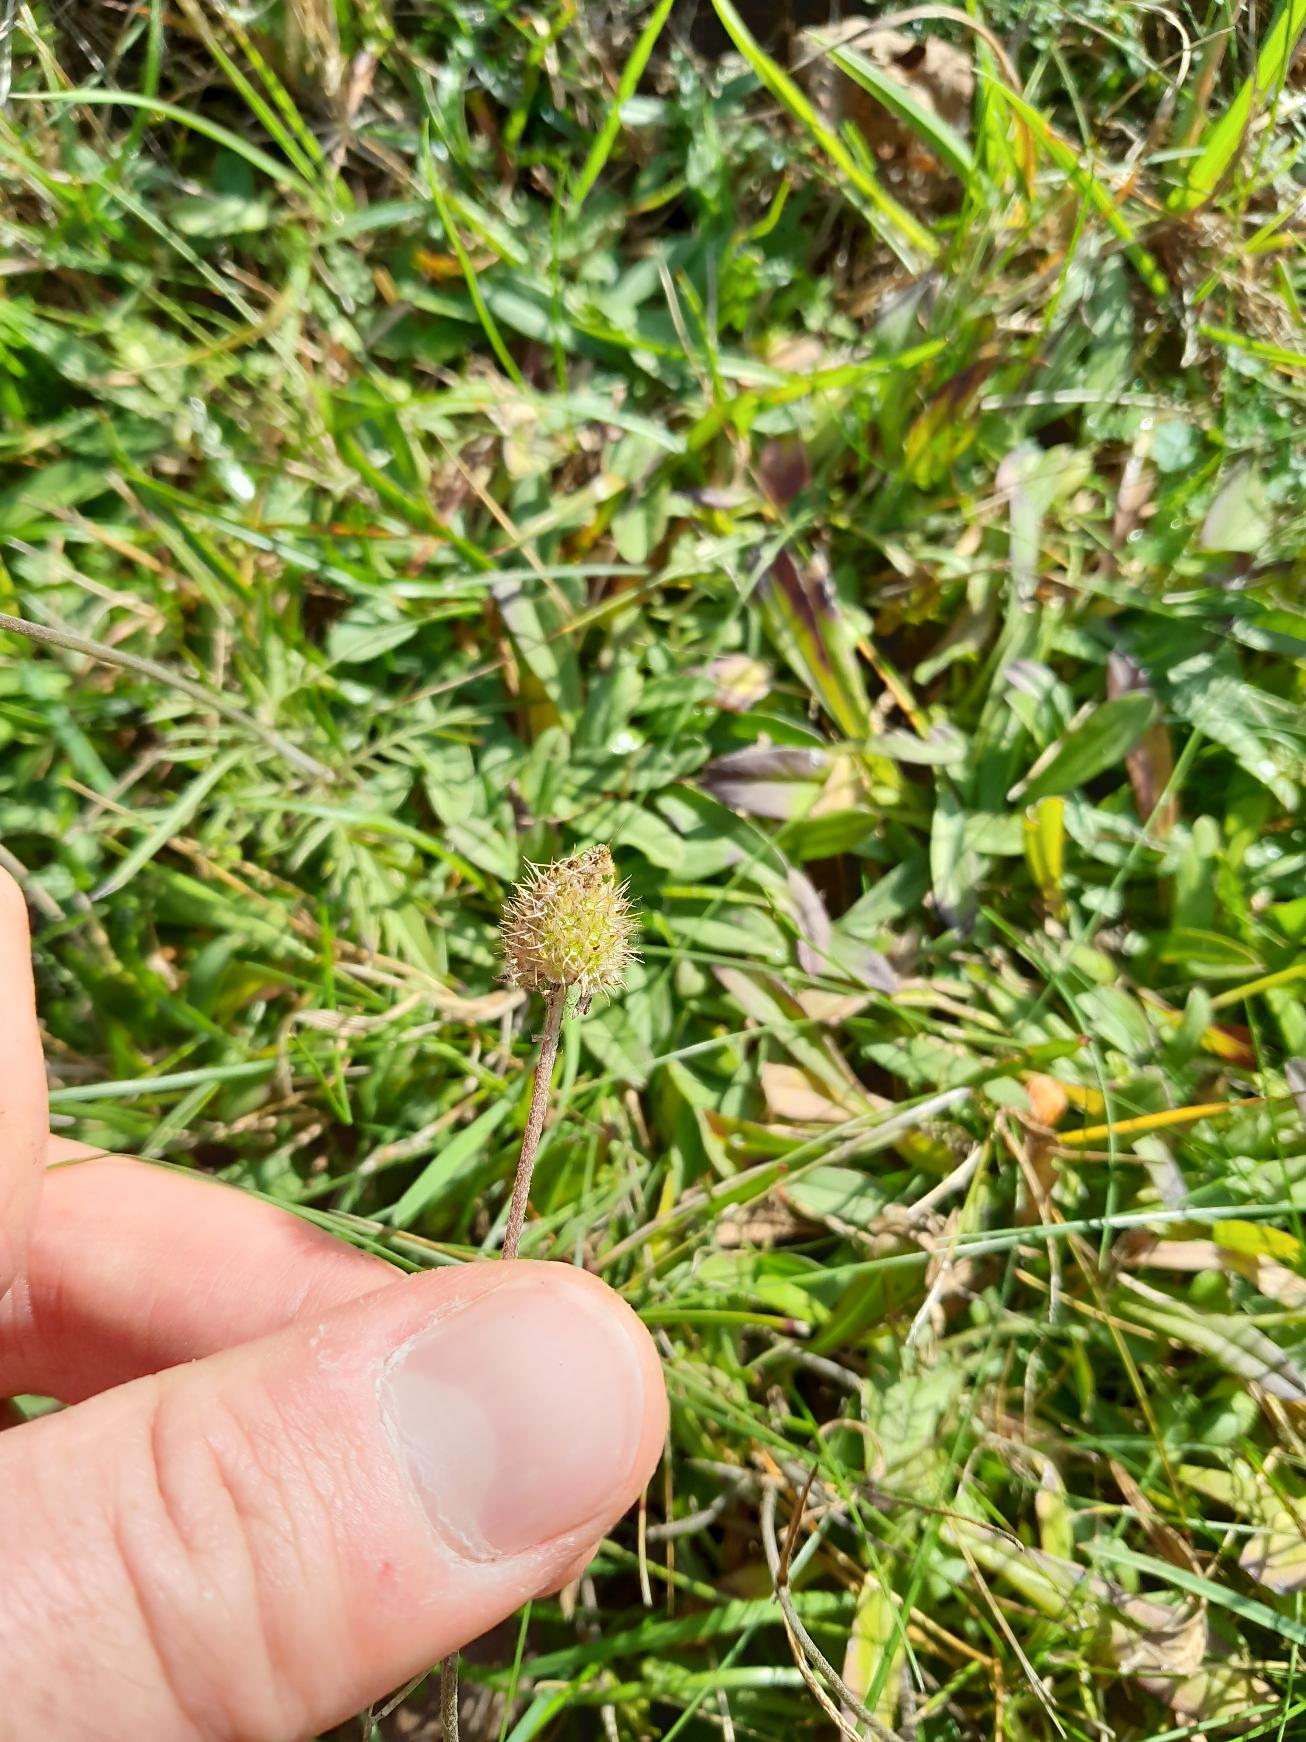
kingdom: Plantae
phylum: Tracheophyta
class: Magnoliopsida
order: Dipsacales
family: Caprifoliaceae
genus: Scabiosa
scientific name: Scabiosa canescens
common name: Vellugtende skabiose
